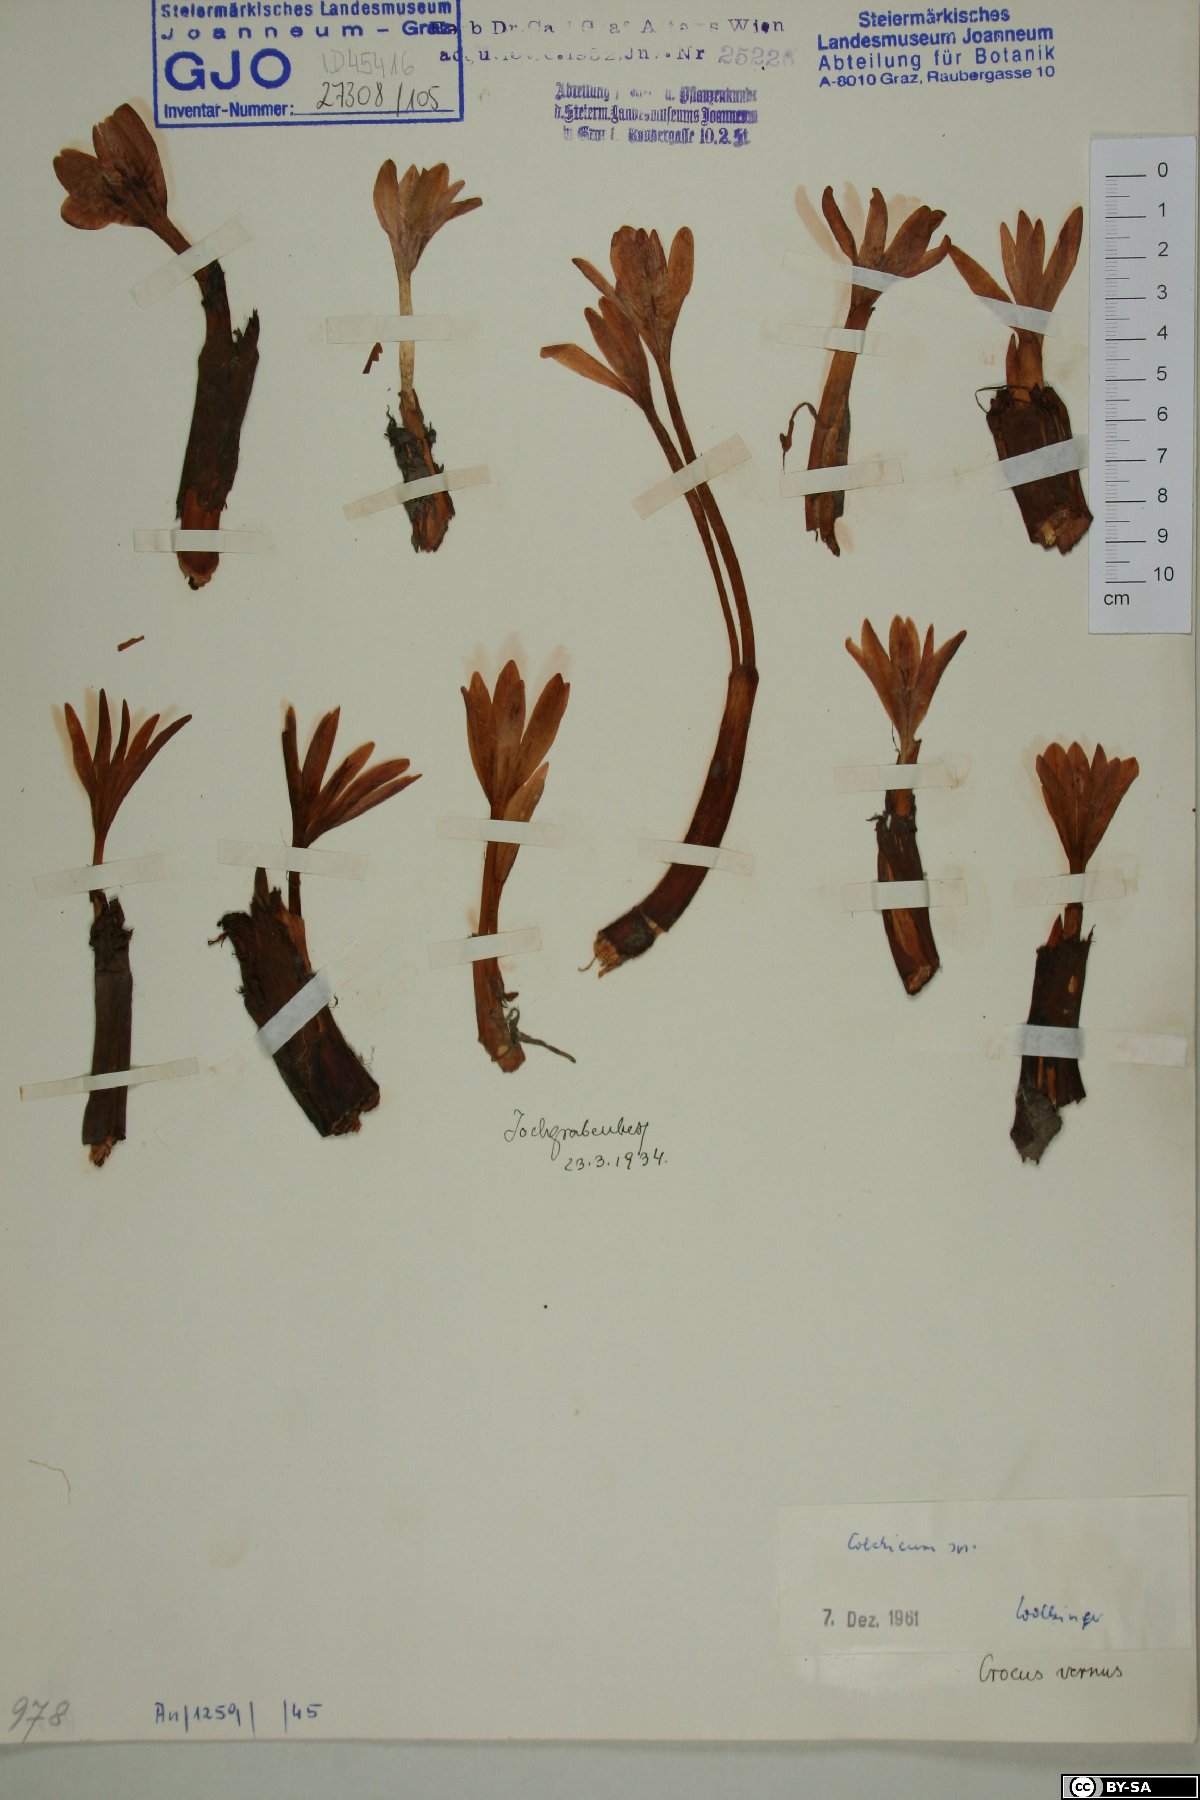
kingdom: Plantae
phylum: Tracheophyta
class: Liliopsida
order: Liliales
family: Colchicaceae
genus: Colchicum
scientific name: Colchicum
